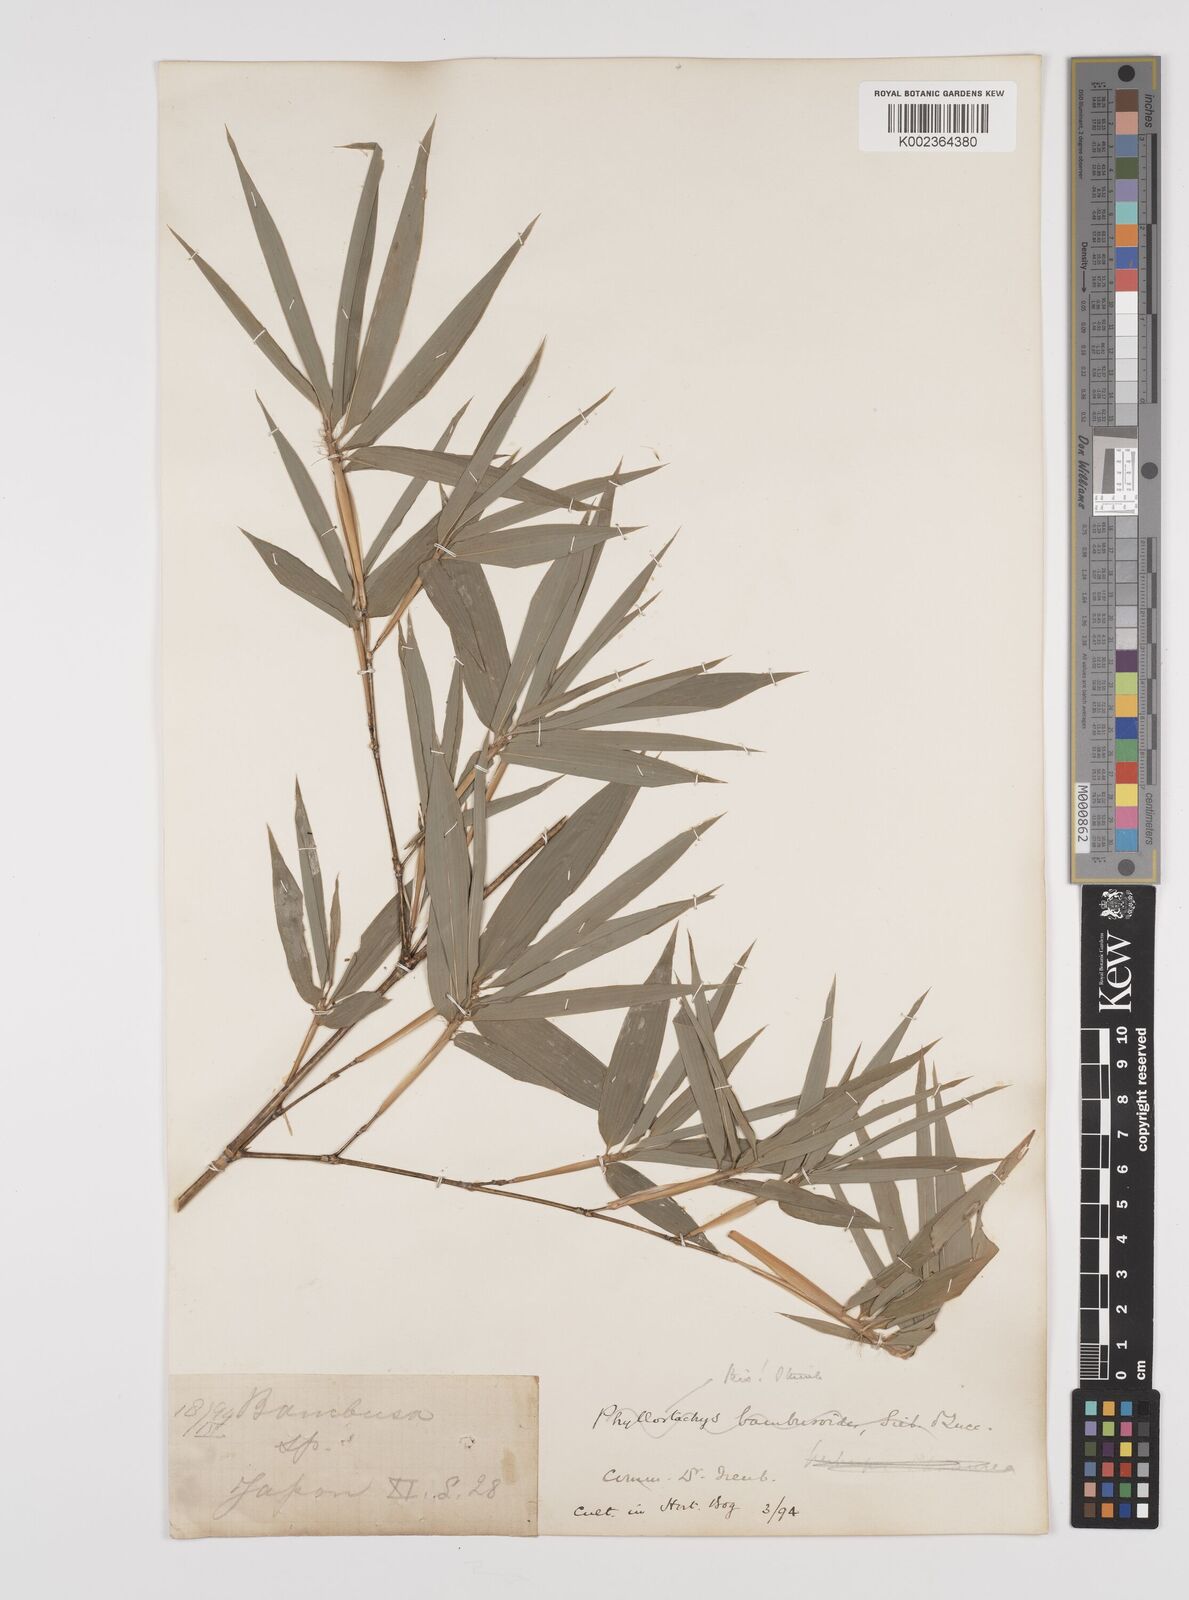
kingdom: Plantae
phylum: Tracheophyta
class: Liliopsida
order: Poales
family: Poaceae
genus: Phyllostachys
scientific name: Phyllostachys reticulata
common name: Bamboo
